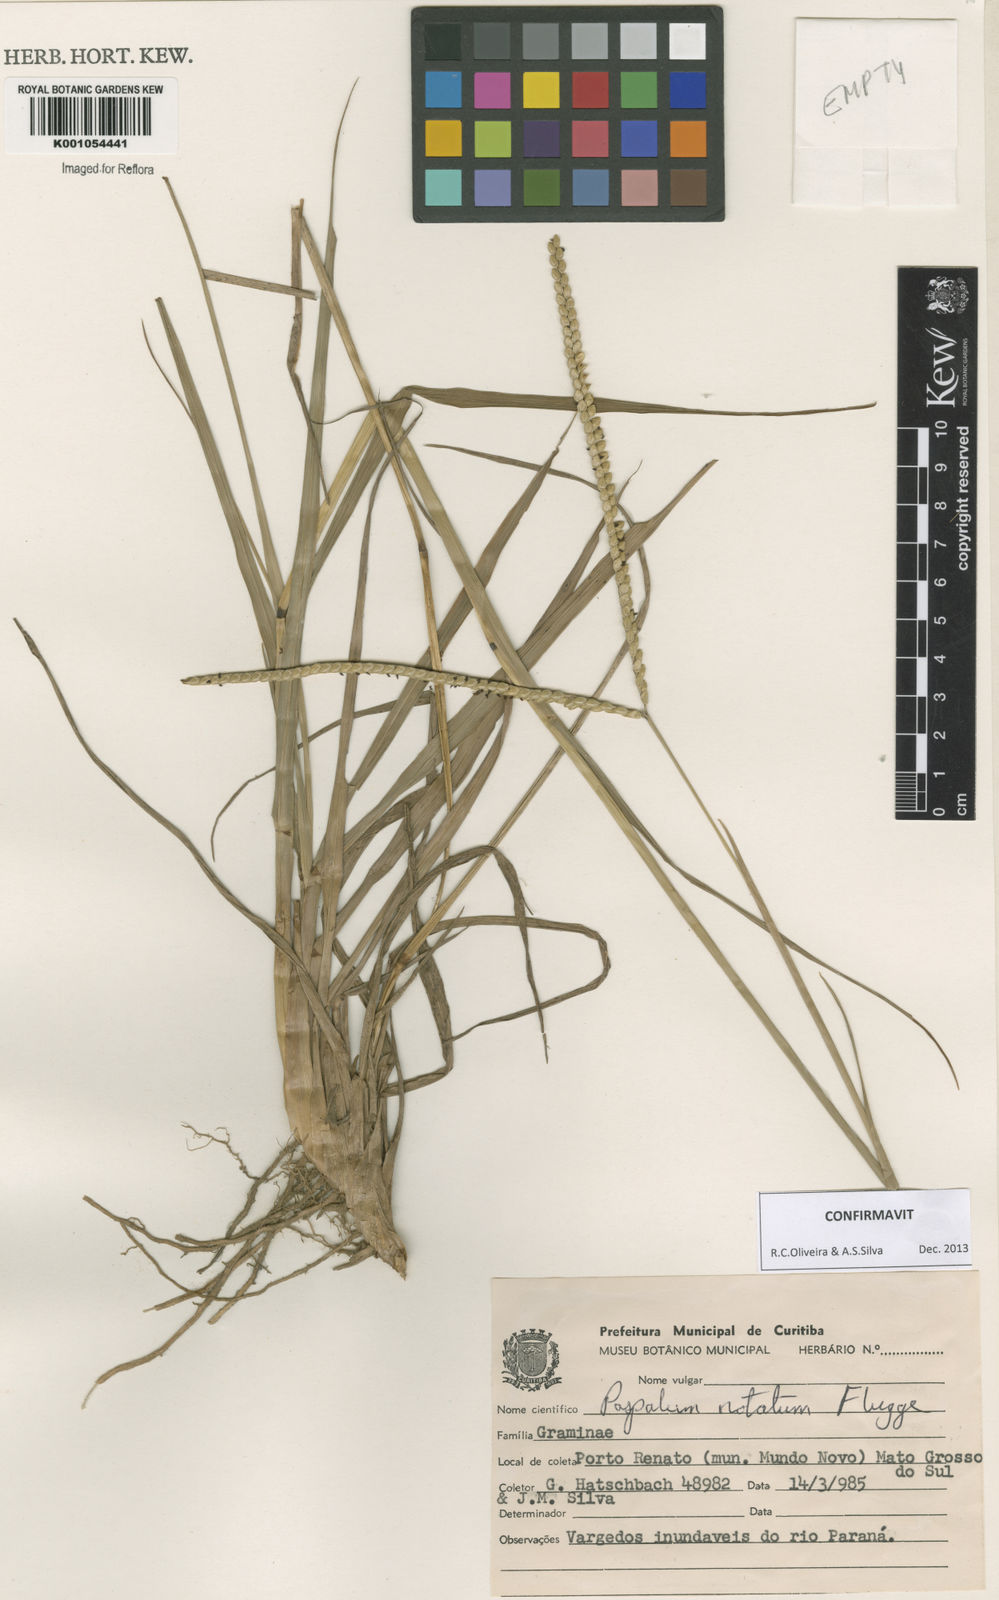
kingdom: Plantae
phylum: Tracheophyta
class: Liliopsida
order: Poales
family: Poaceae
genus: Paspalum
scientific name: Paspalum
